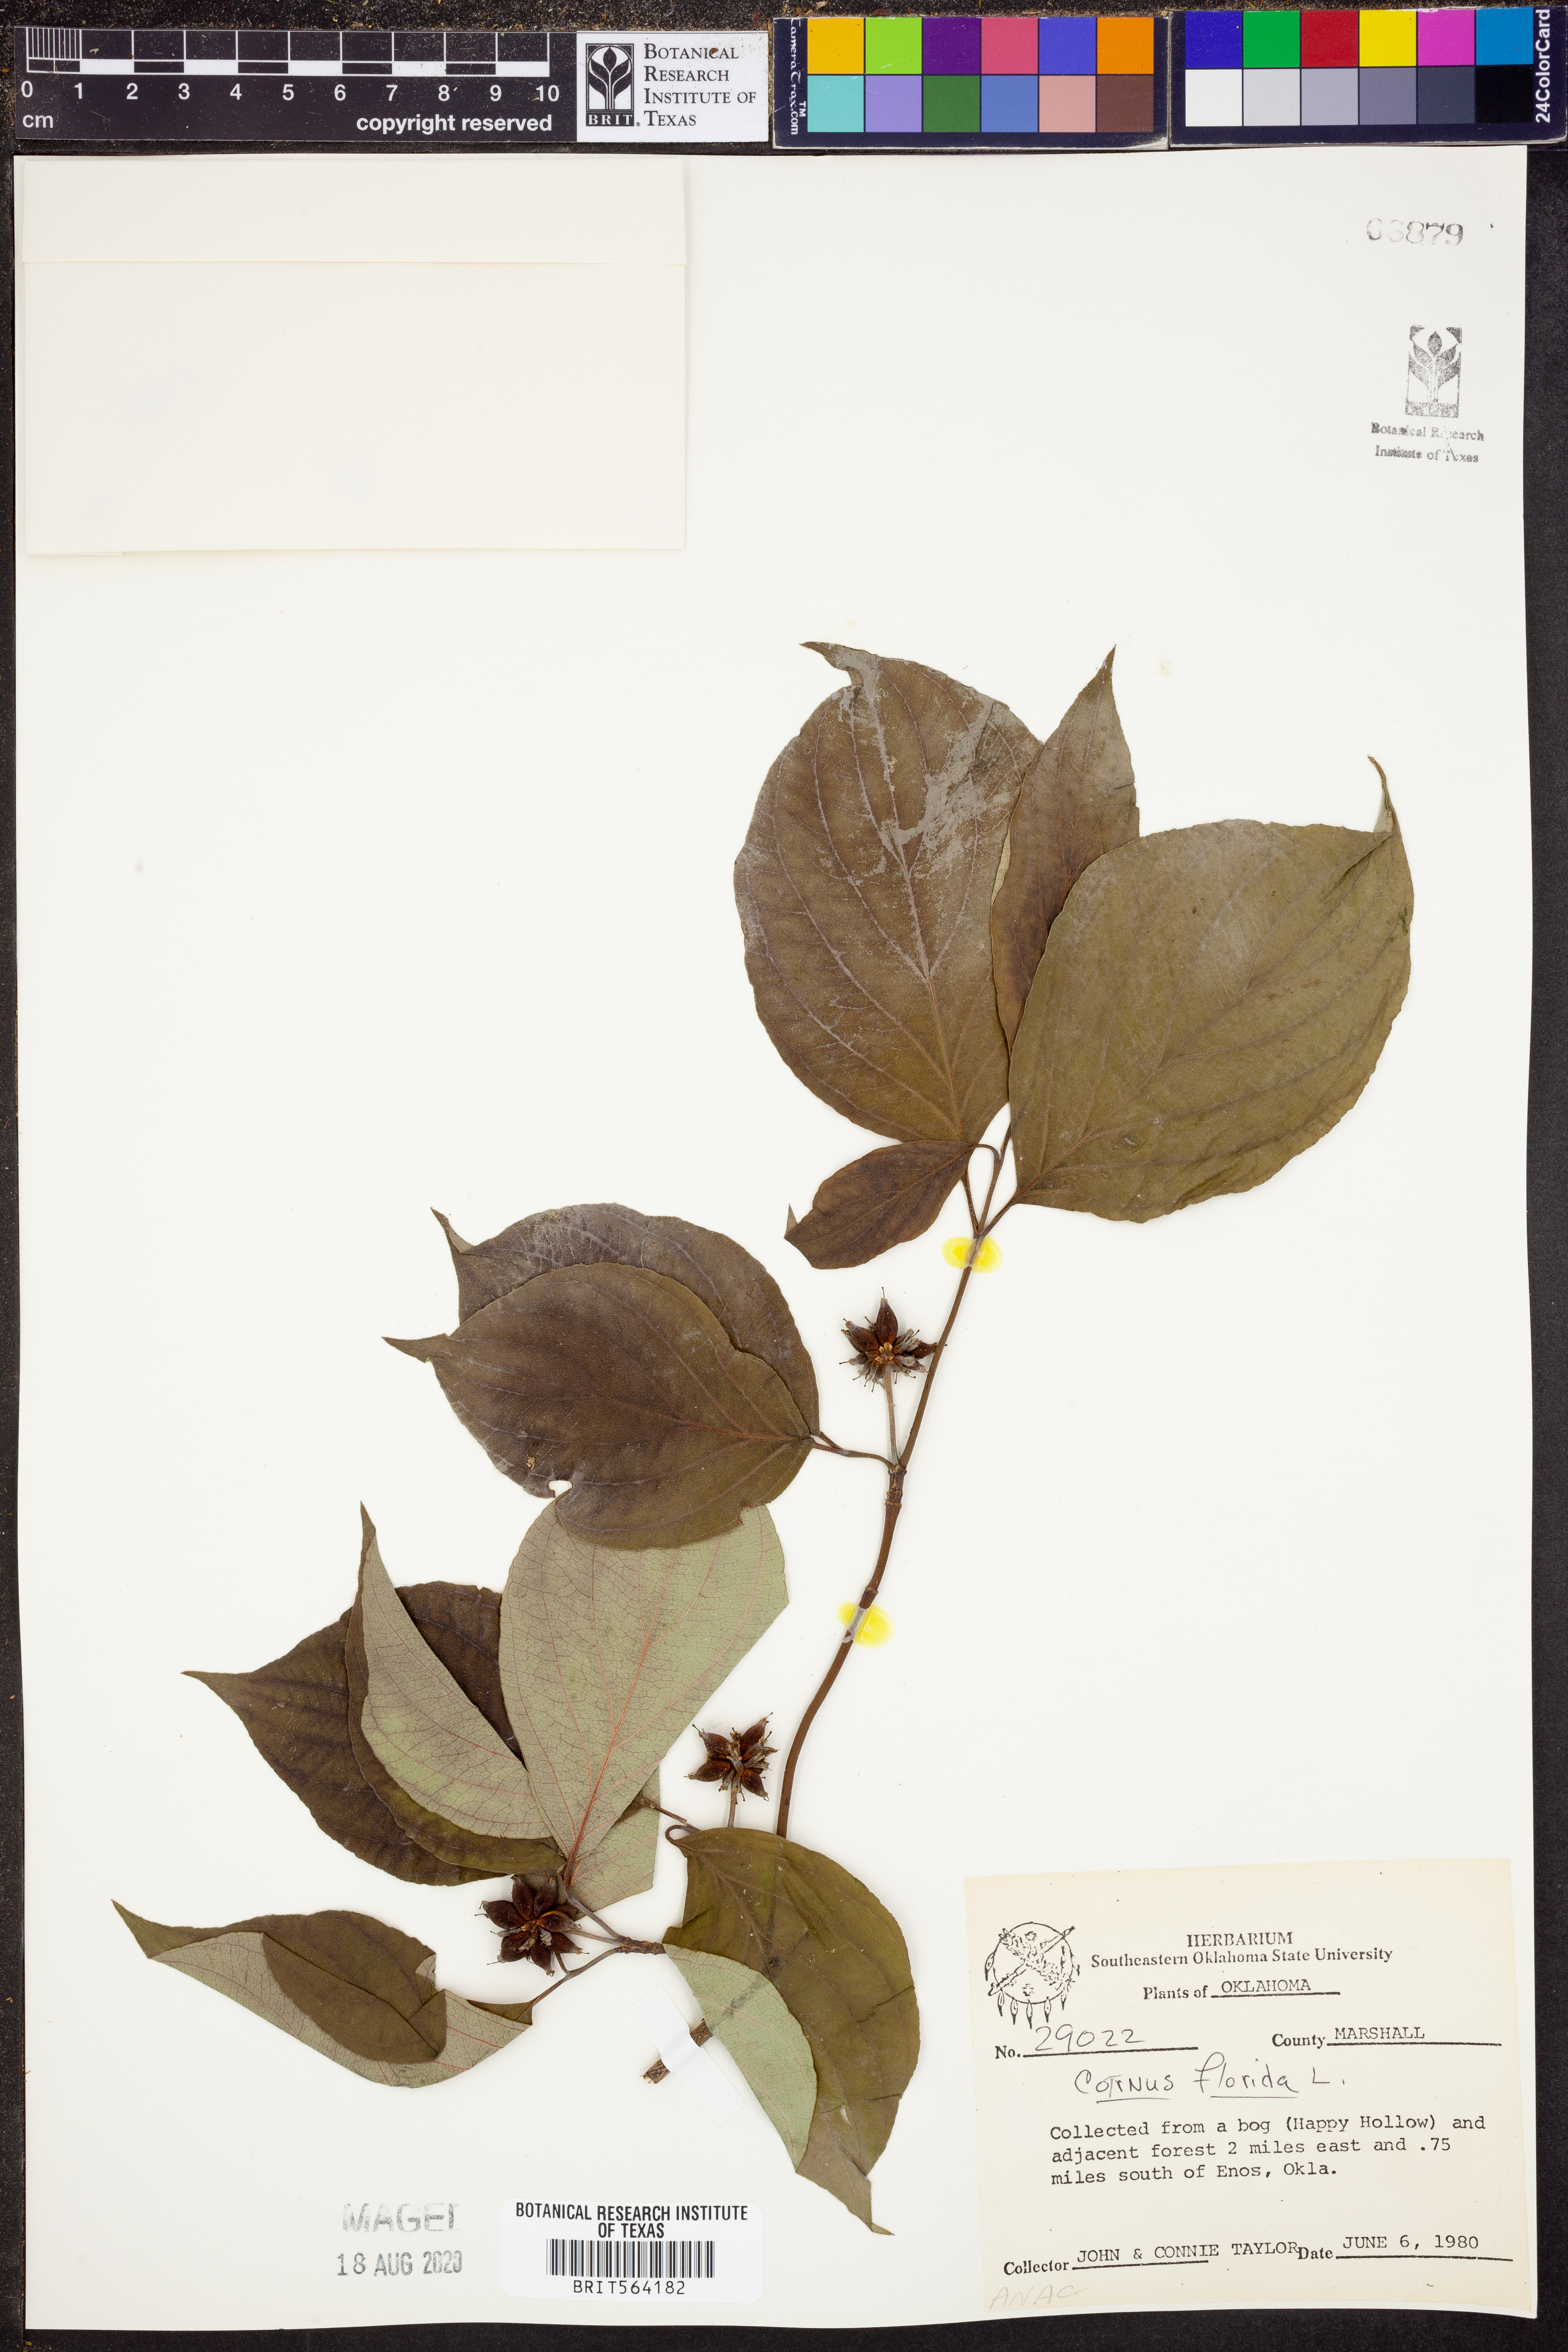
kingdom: Plantae
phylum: Tracheophyta
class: Magnoliopsida
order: Cornales
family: Cornaceae
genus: Cornus
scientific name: Cornus florida
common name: Flowering dogwood
